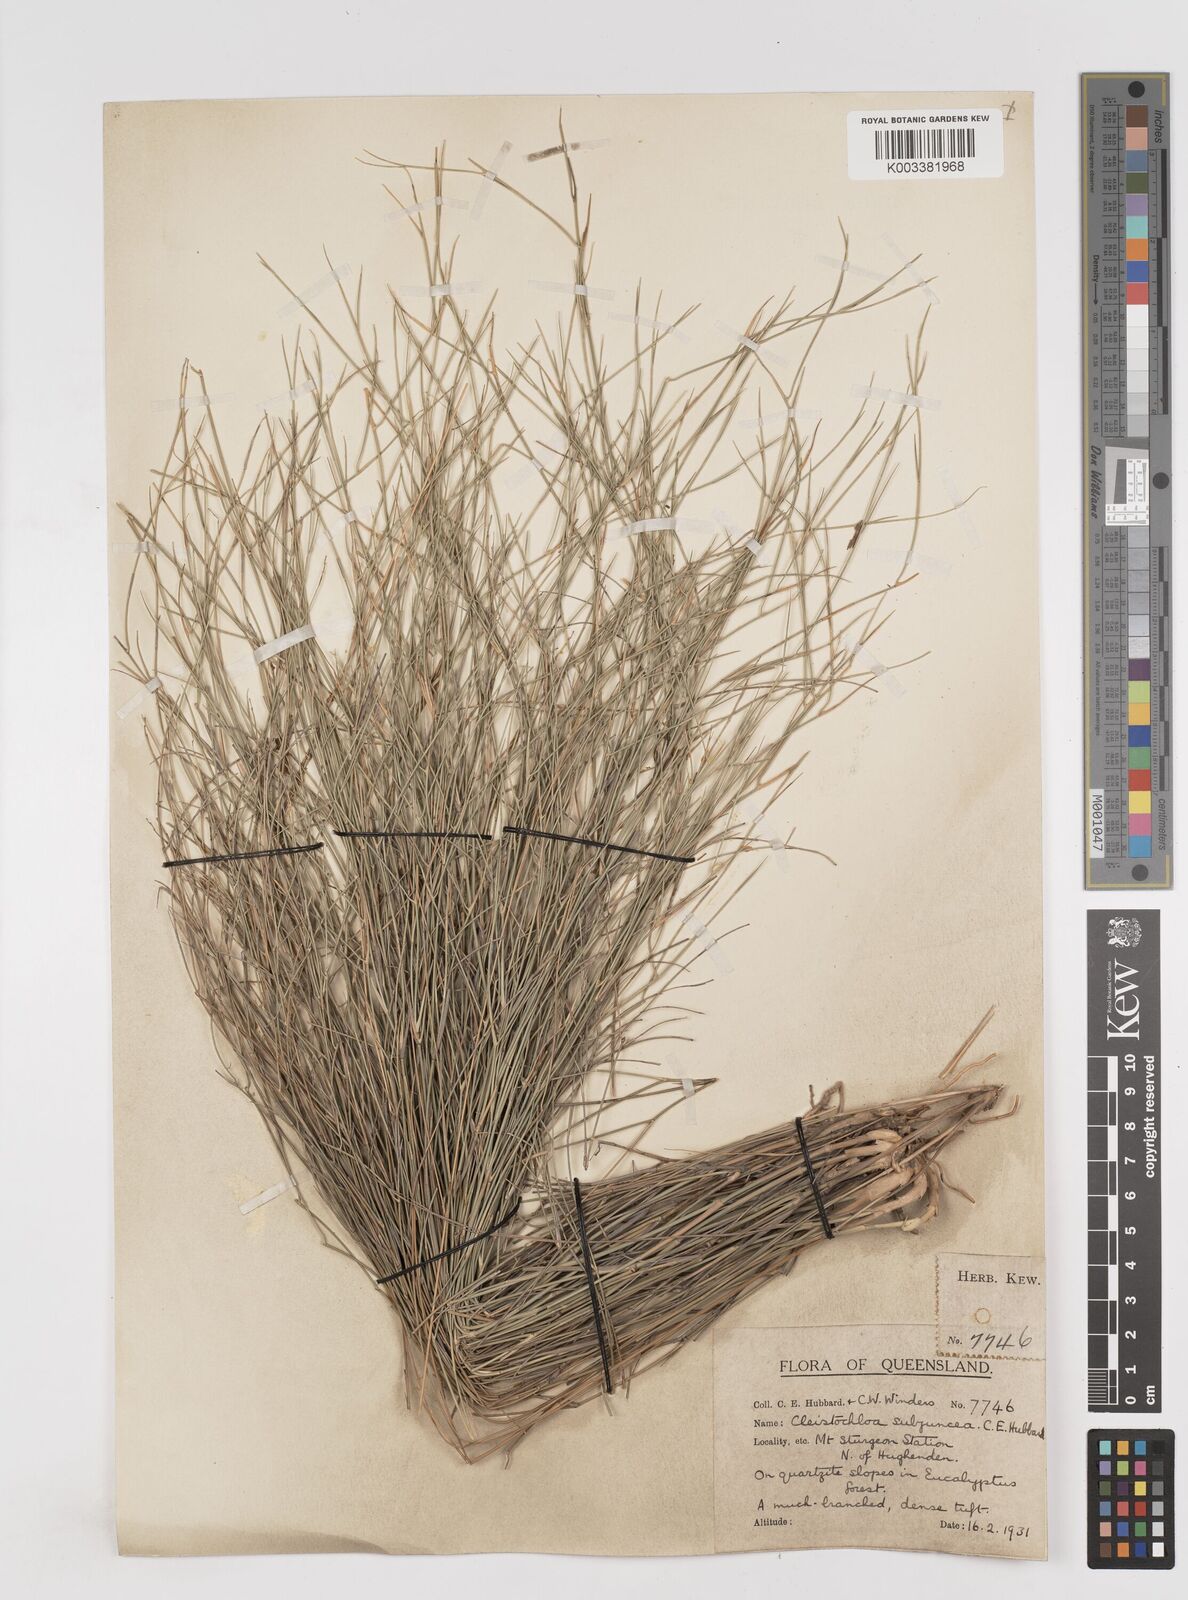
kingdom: Plantae
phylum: Tracheophyta
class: Liliopsida
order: Poales
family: Poaceae
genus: Cleistochloa
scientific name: Cleistochloa subjuncea
